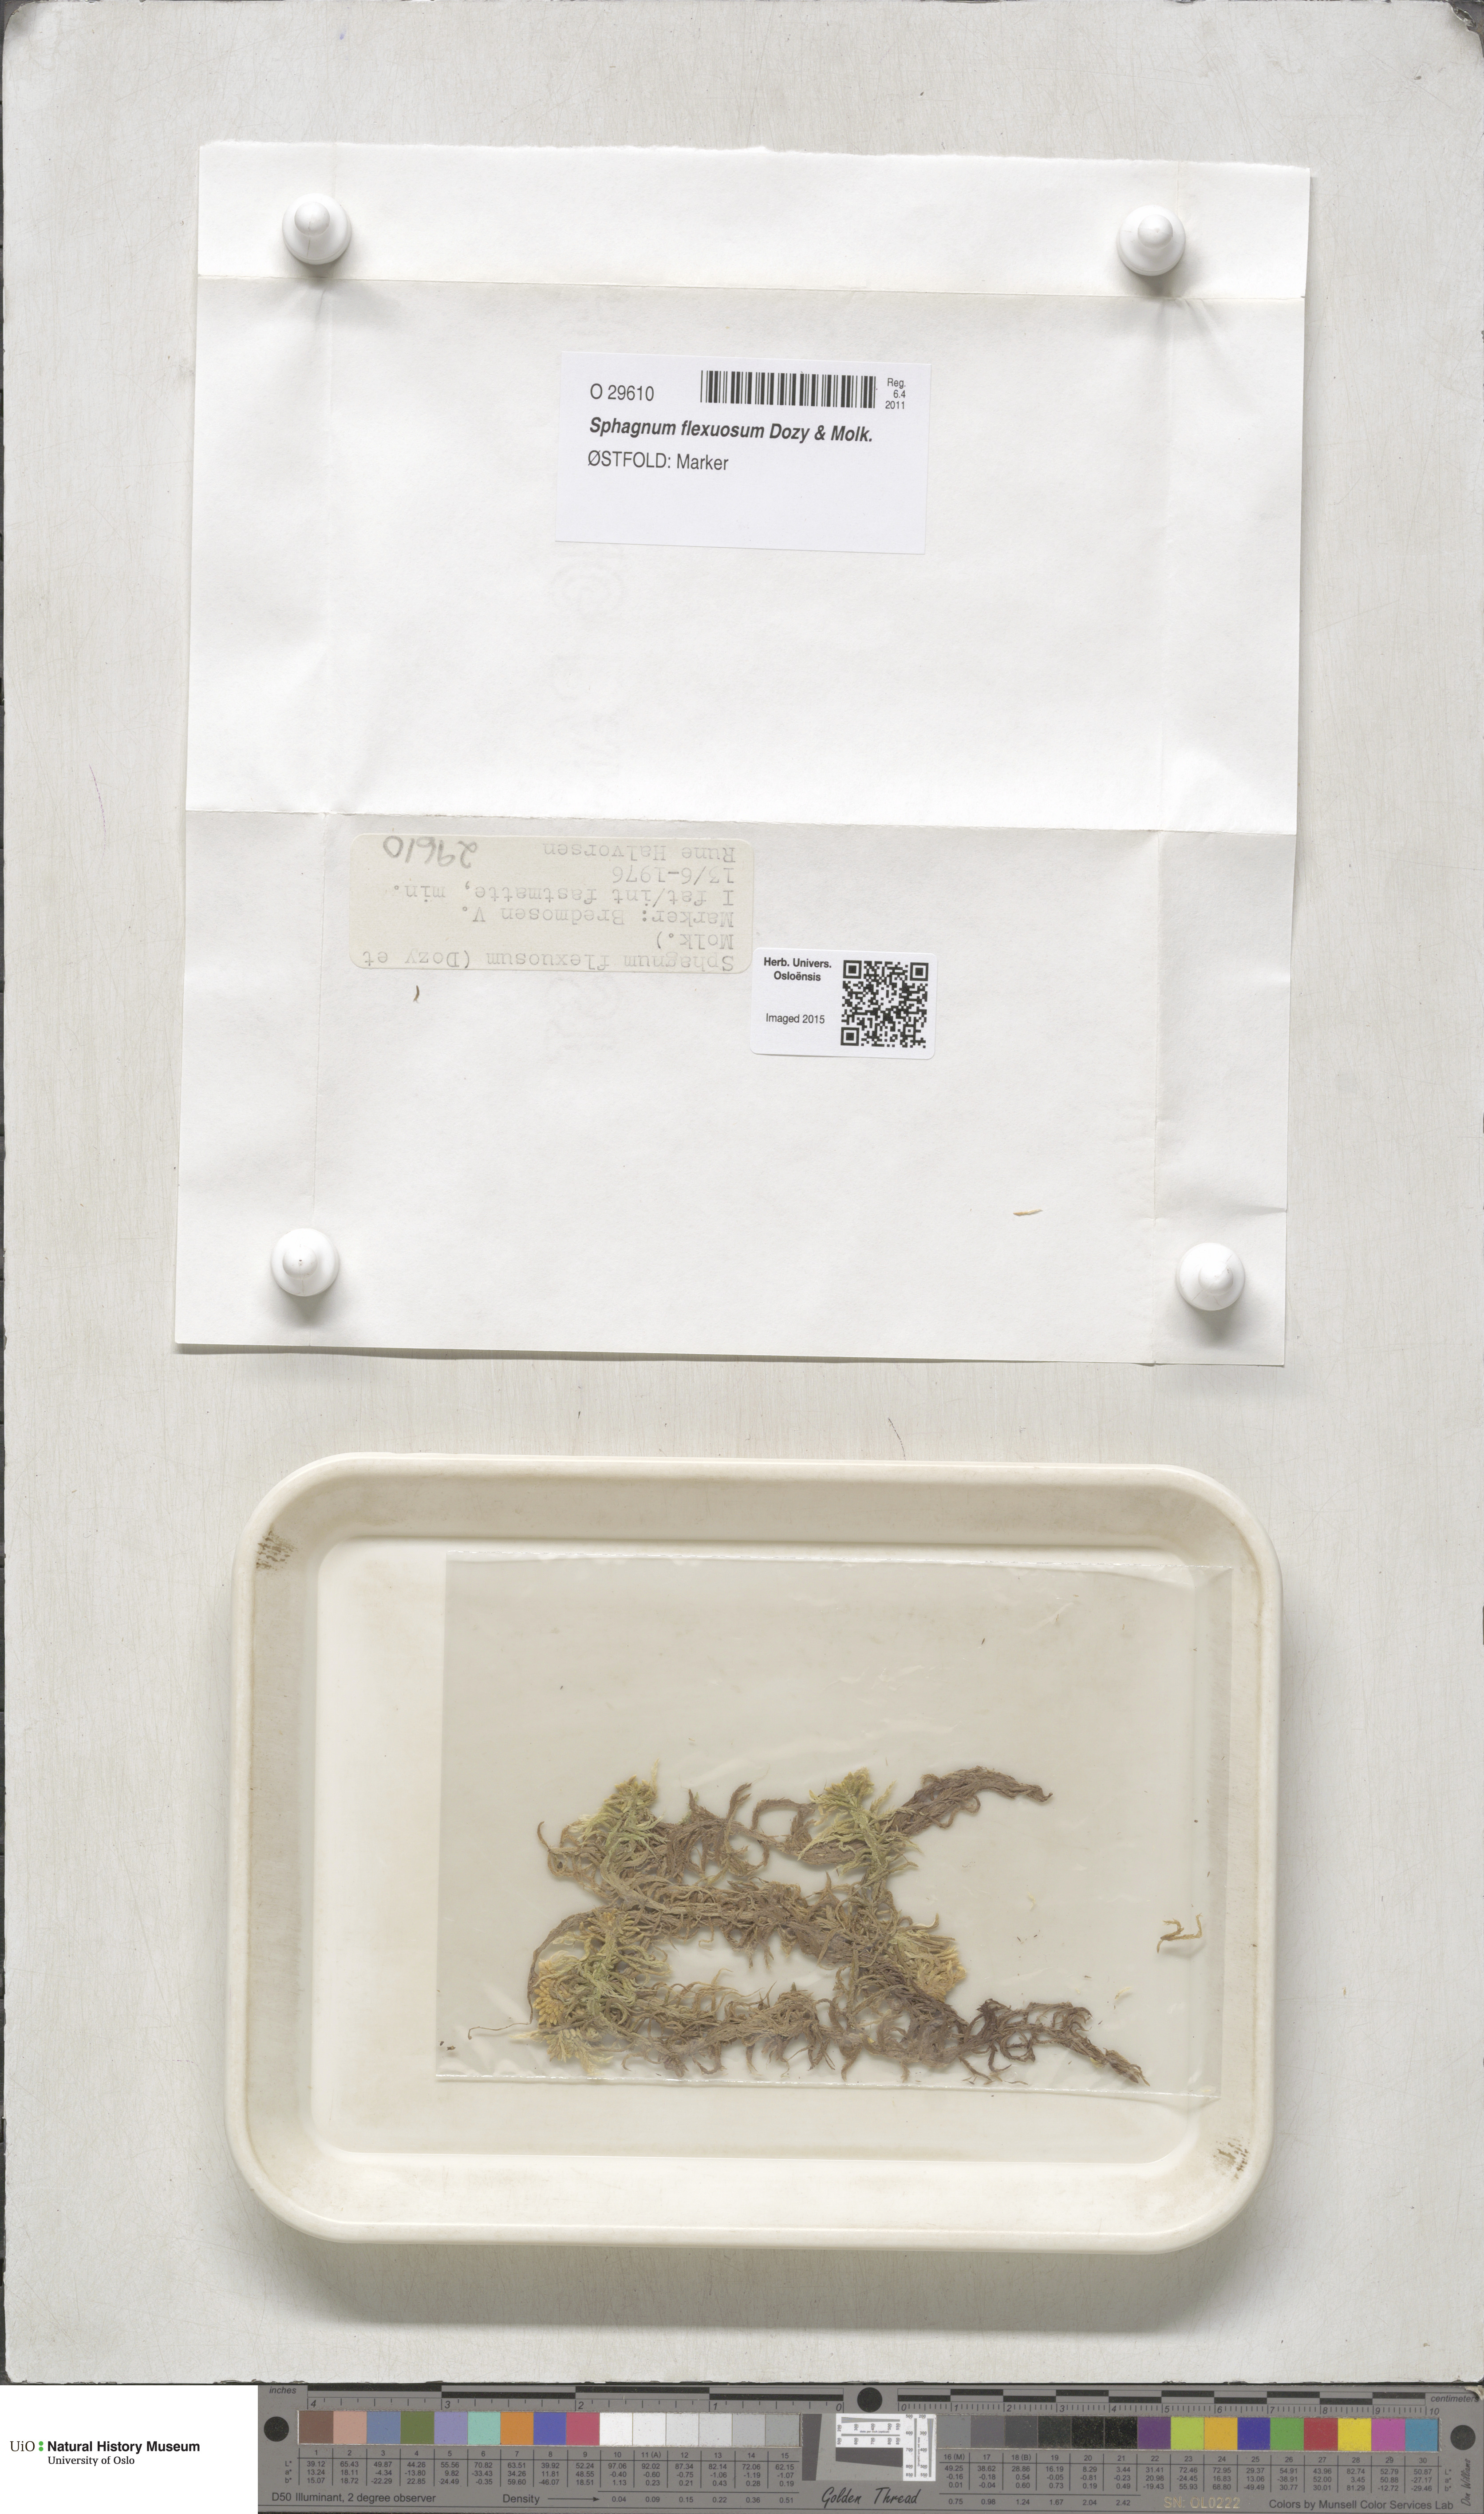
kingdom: Plantae
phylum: Bryophyta
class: Sphagnopsida
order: Sphagnales
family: Sphagnaceae
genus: Sphagnum
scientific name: Sphagnum flexuosum
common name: Flexible peat moss
